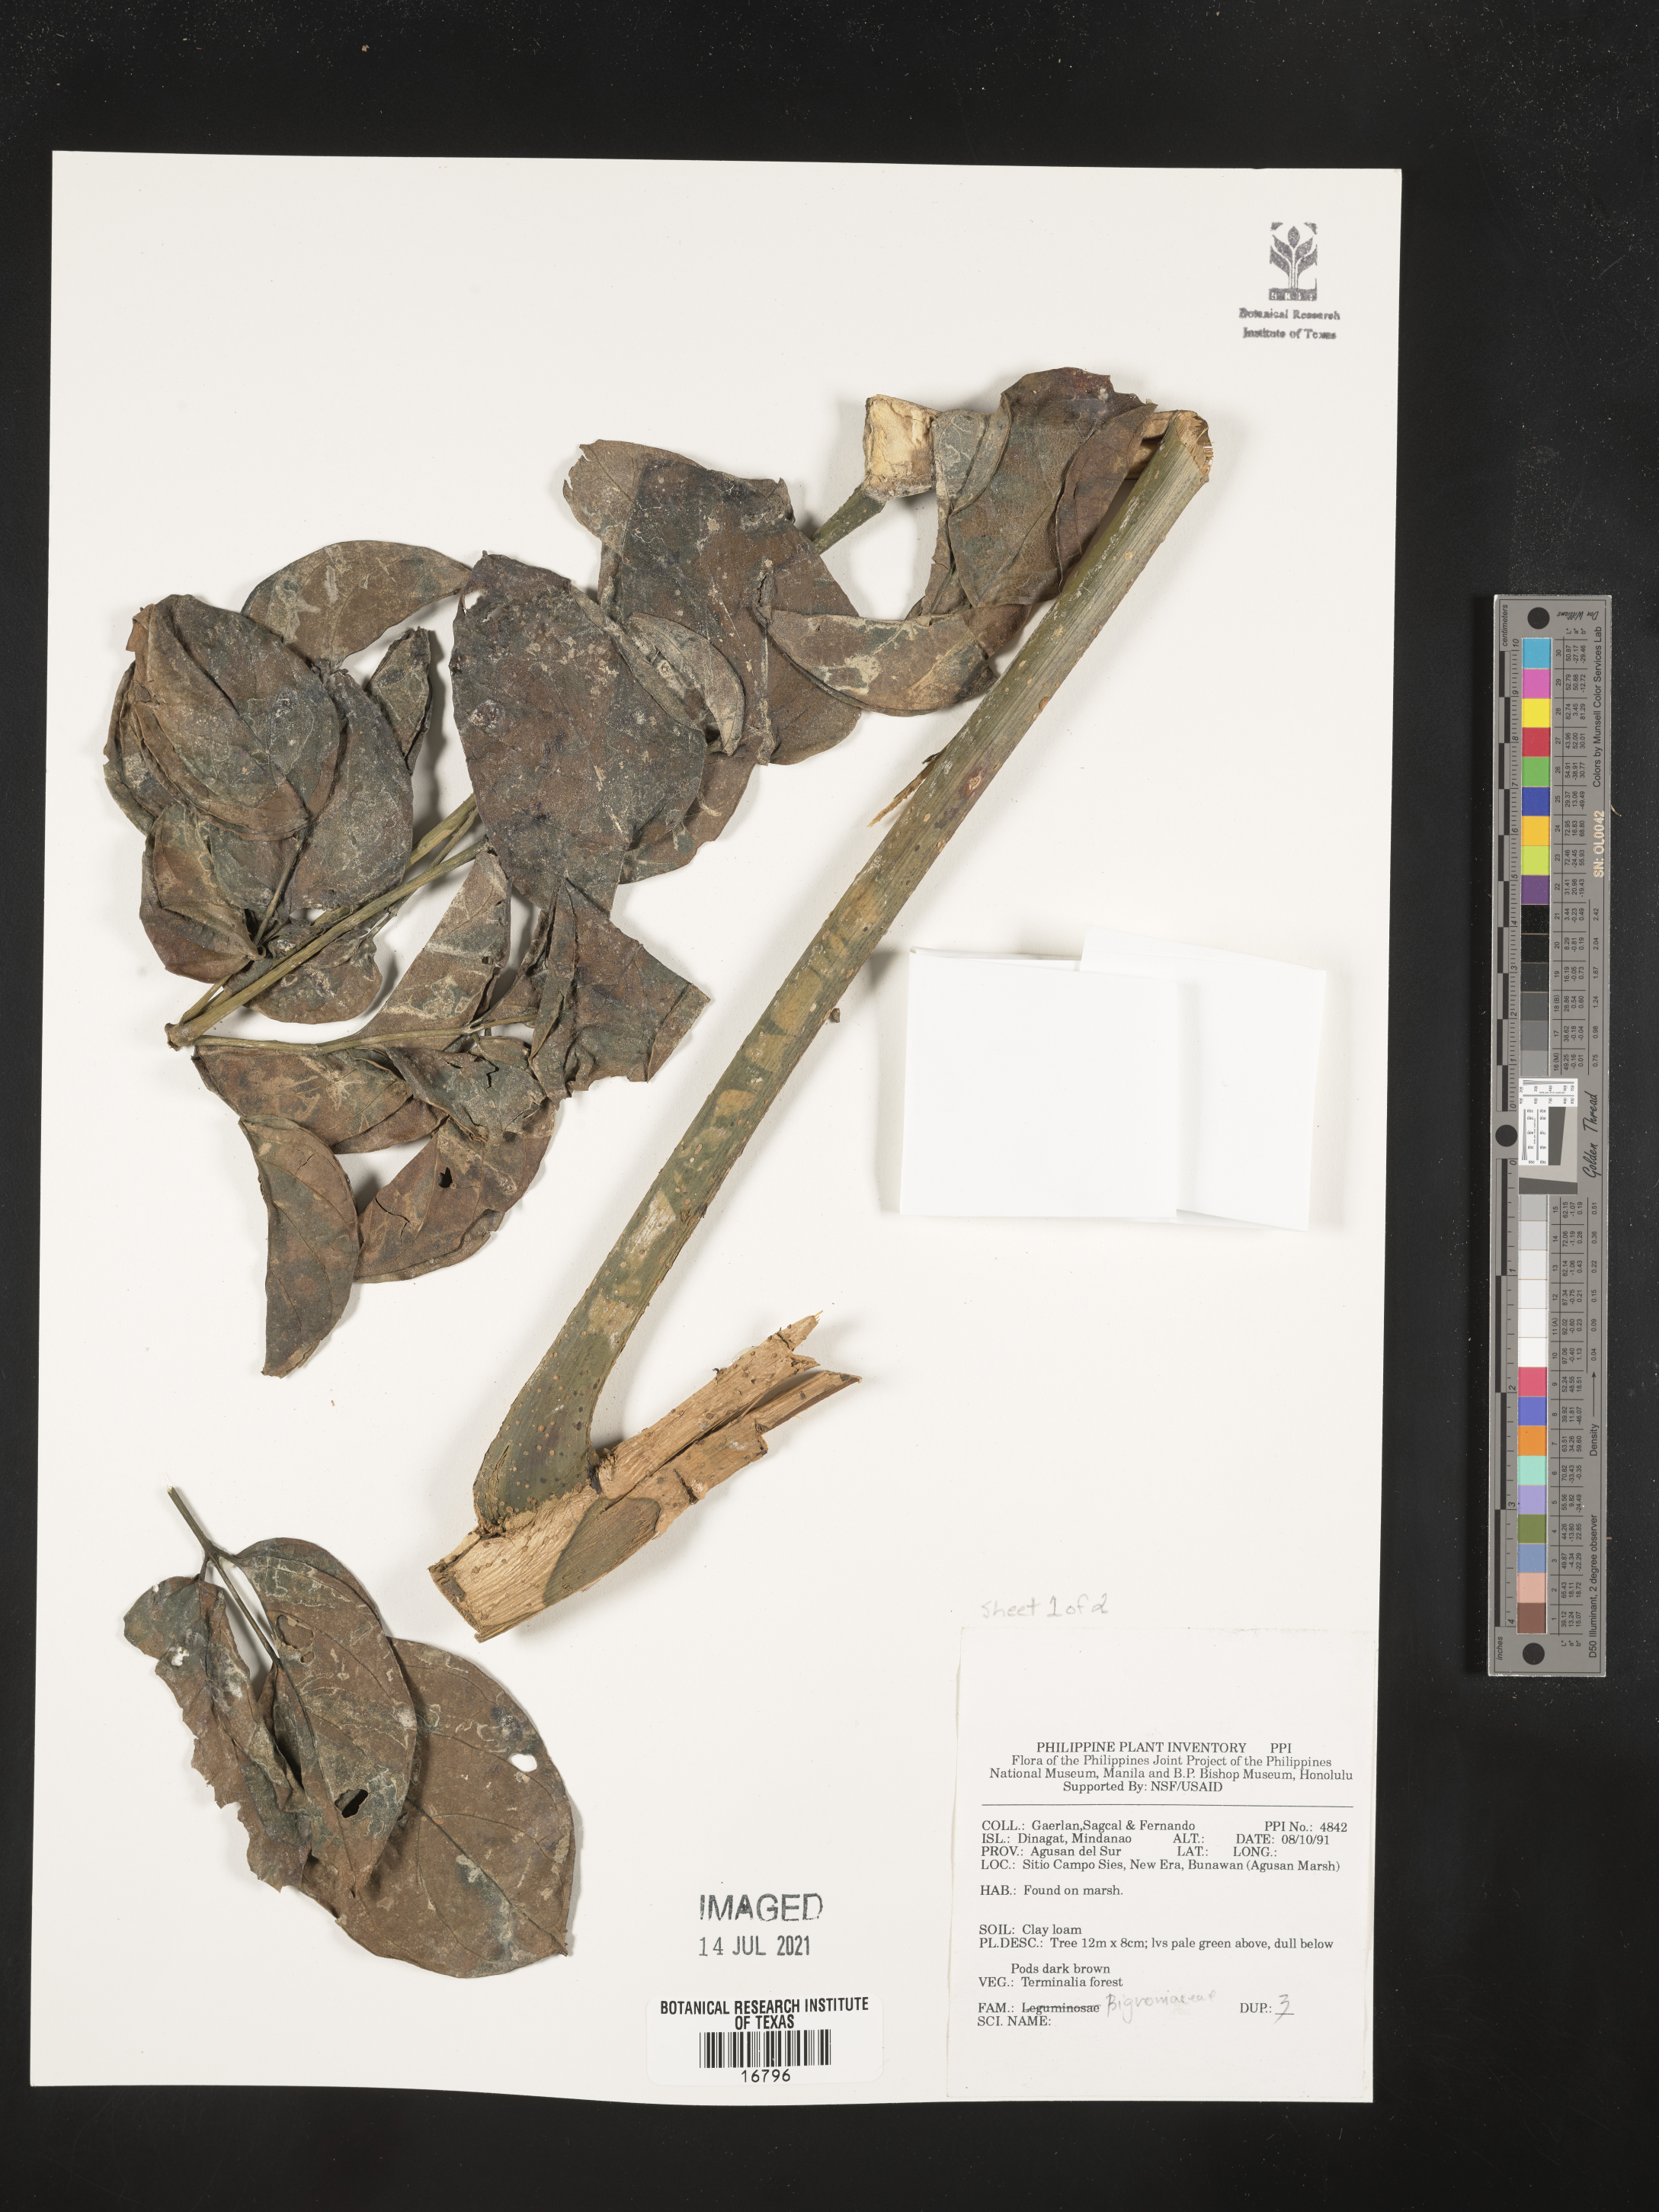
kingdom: Plantae
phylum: Tracheophyta
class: Magnoliopsida
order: Lamiales
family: Bignoniaceae
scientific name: Bignoniaceae
